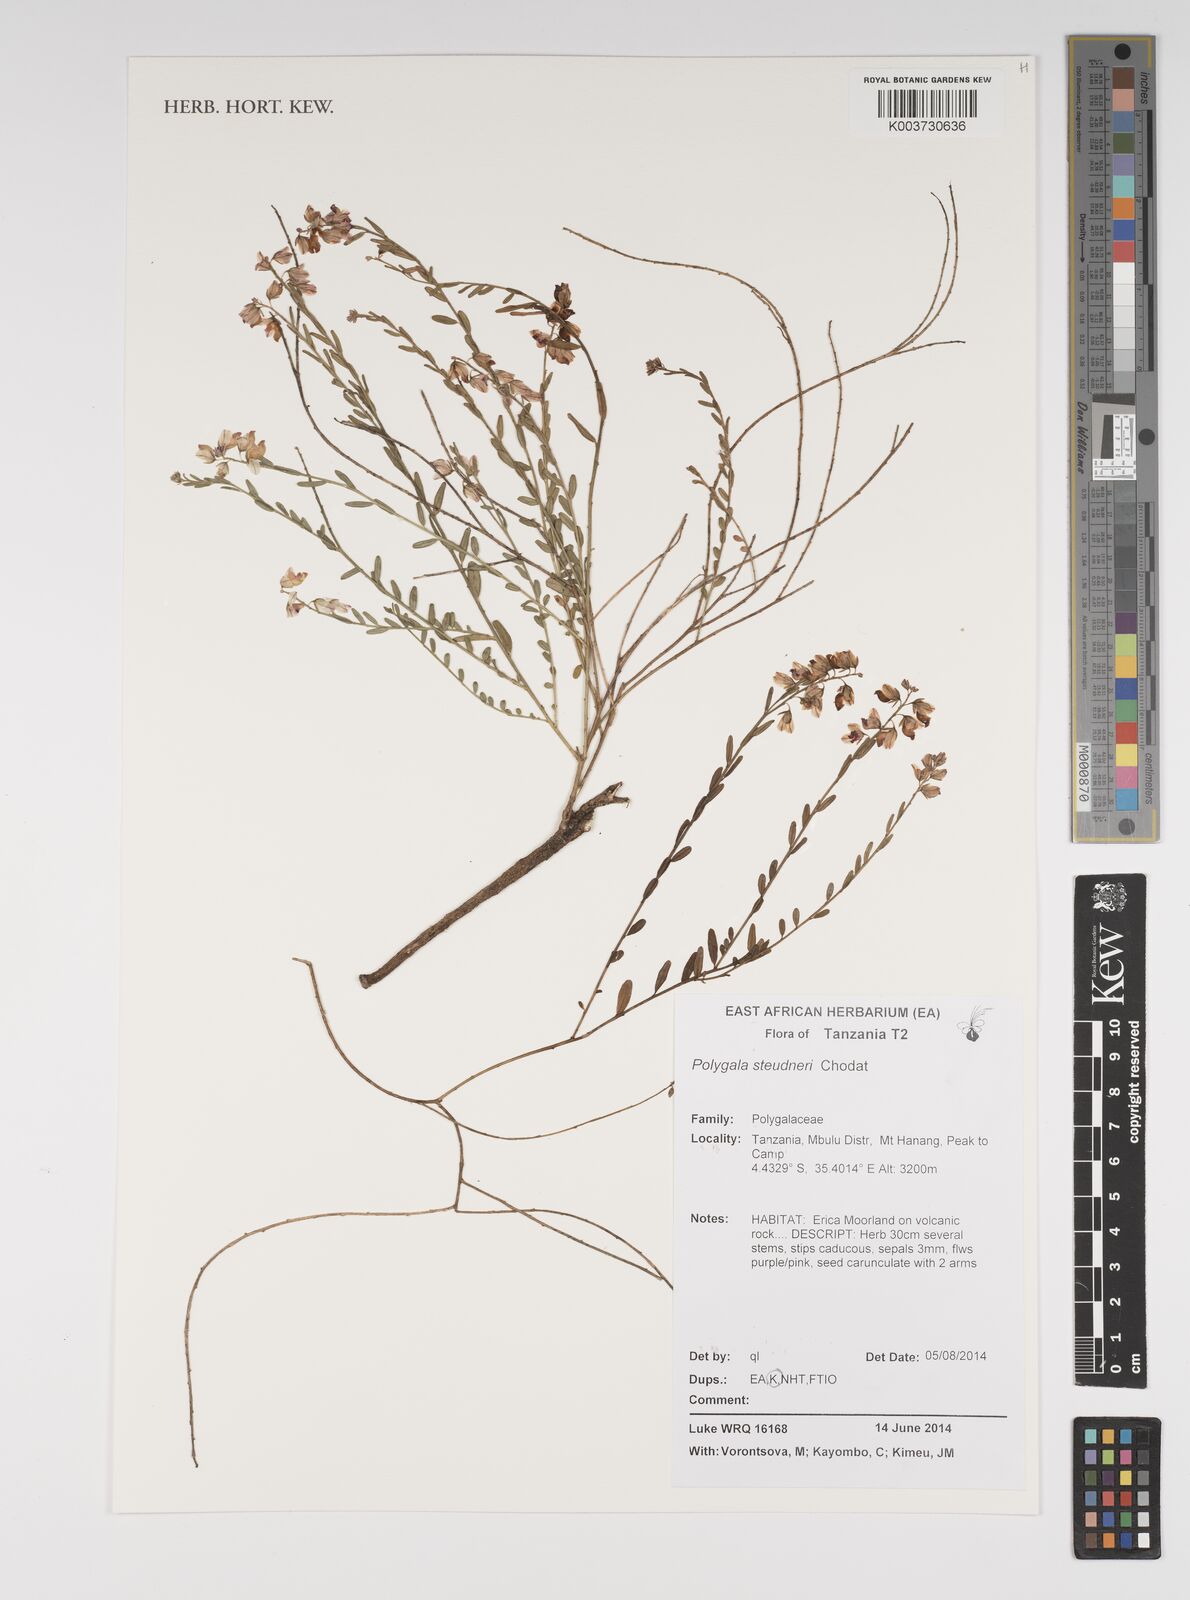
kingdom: Plantae
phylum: Tracheophyta
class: Magnoliopsida
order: Fabales
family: Polygalaceae
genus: Polygala
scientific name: Polygala steudneri
